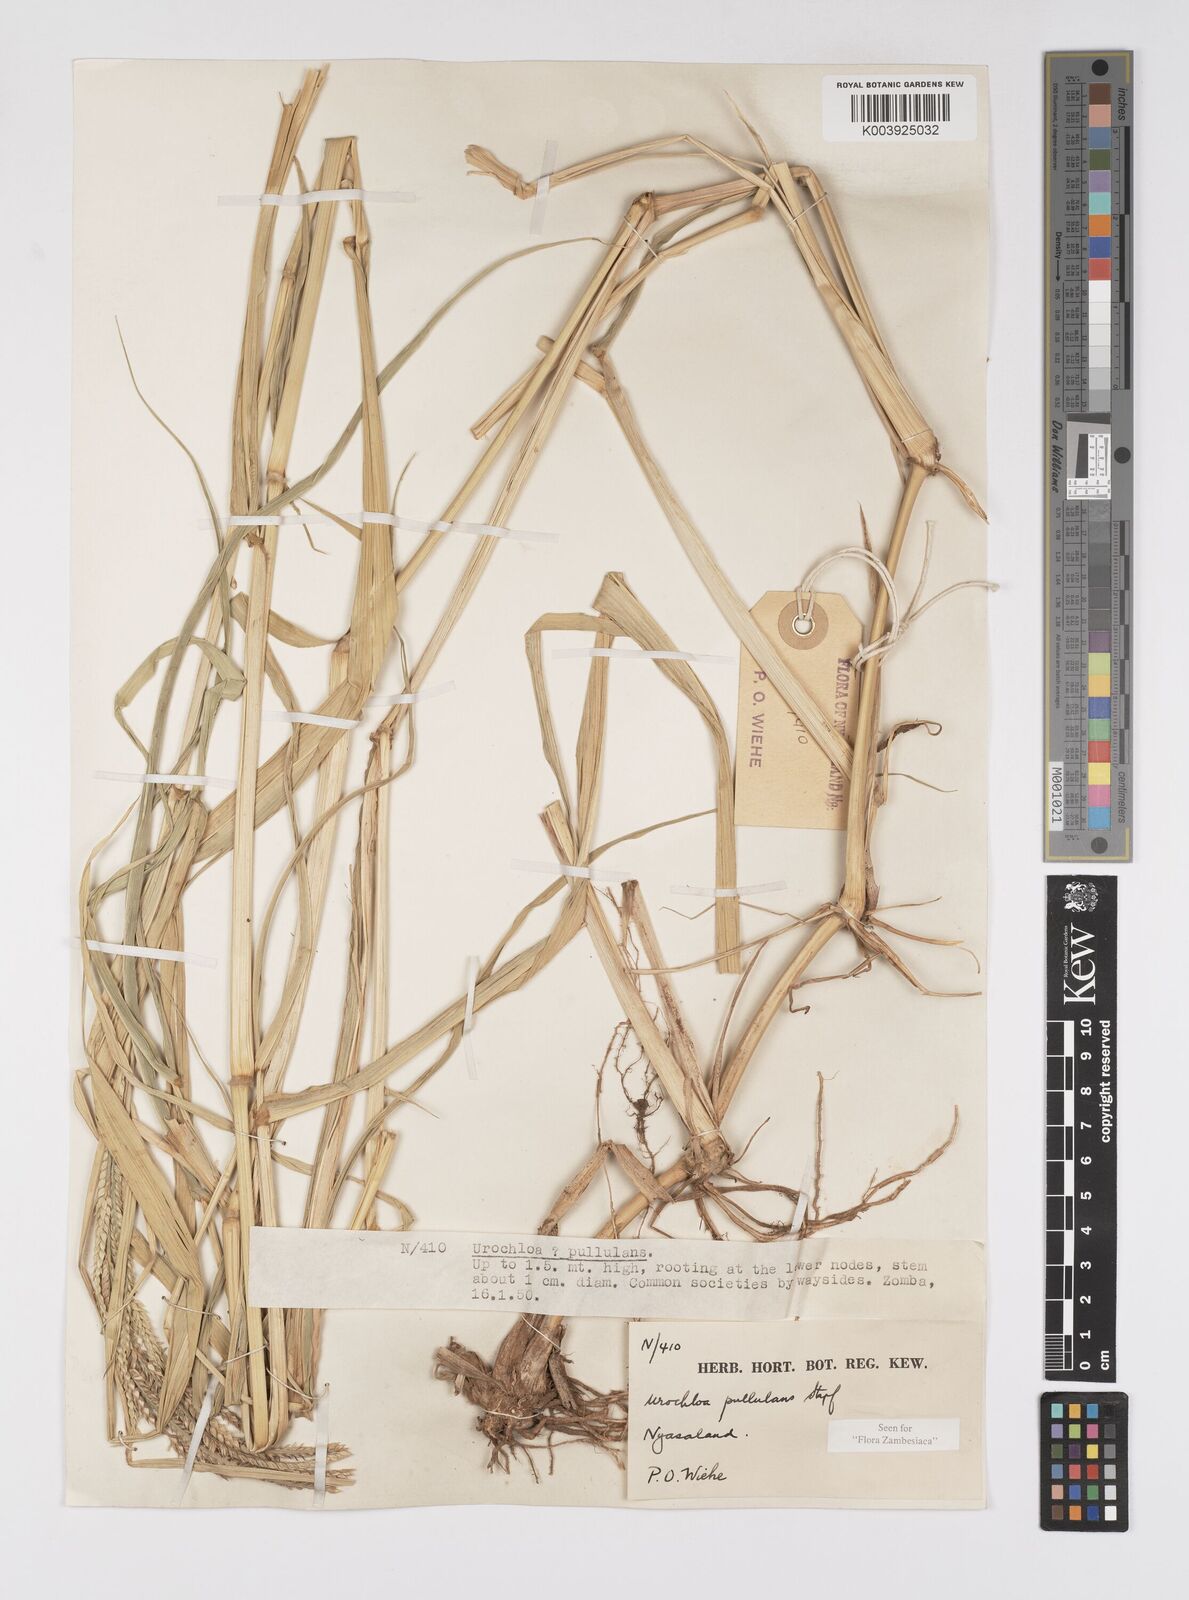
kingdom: Plantae
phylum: Tracheophyta
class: Liliopsida
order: Poales
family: Poaceae
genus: Urochloa
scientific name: Urochloa trichopus
